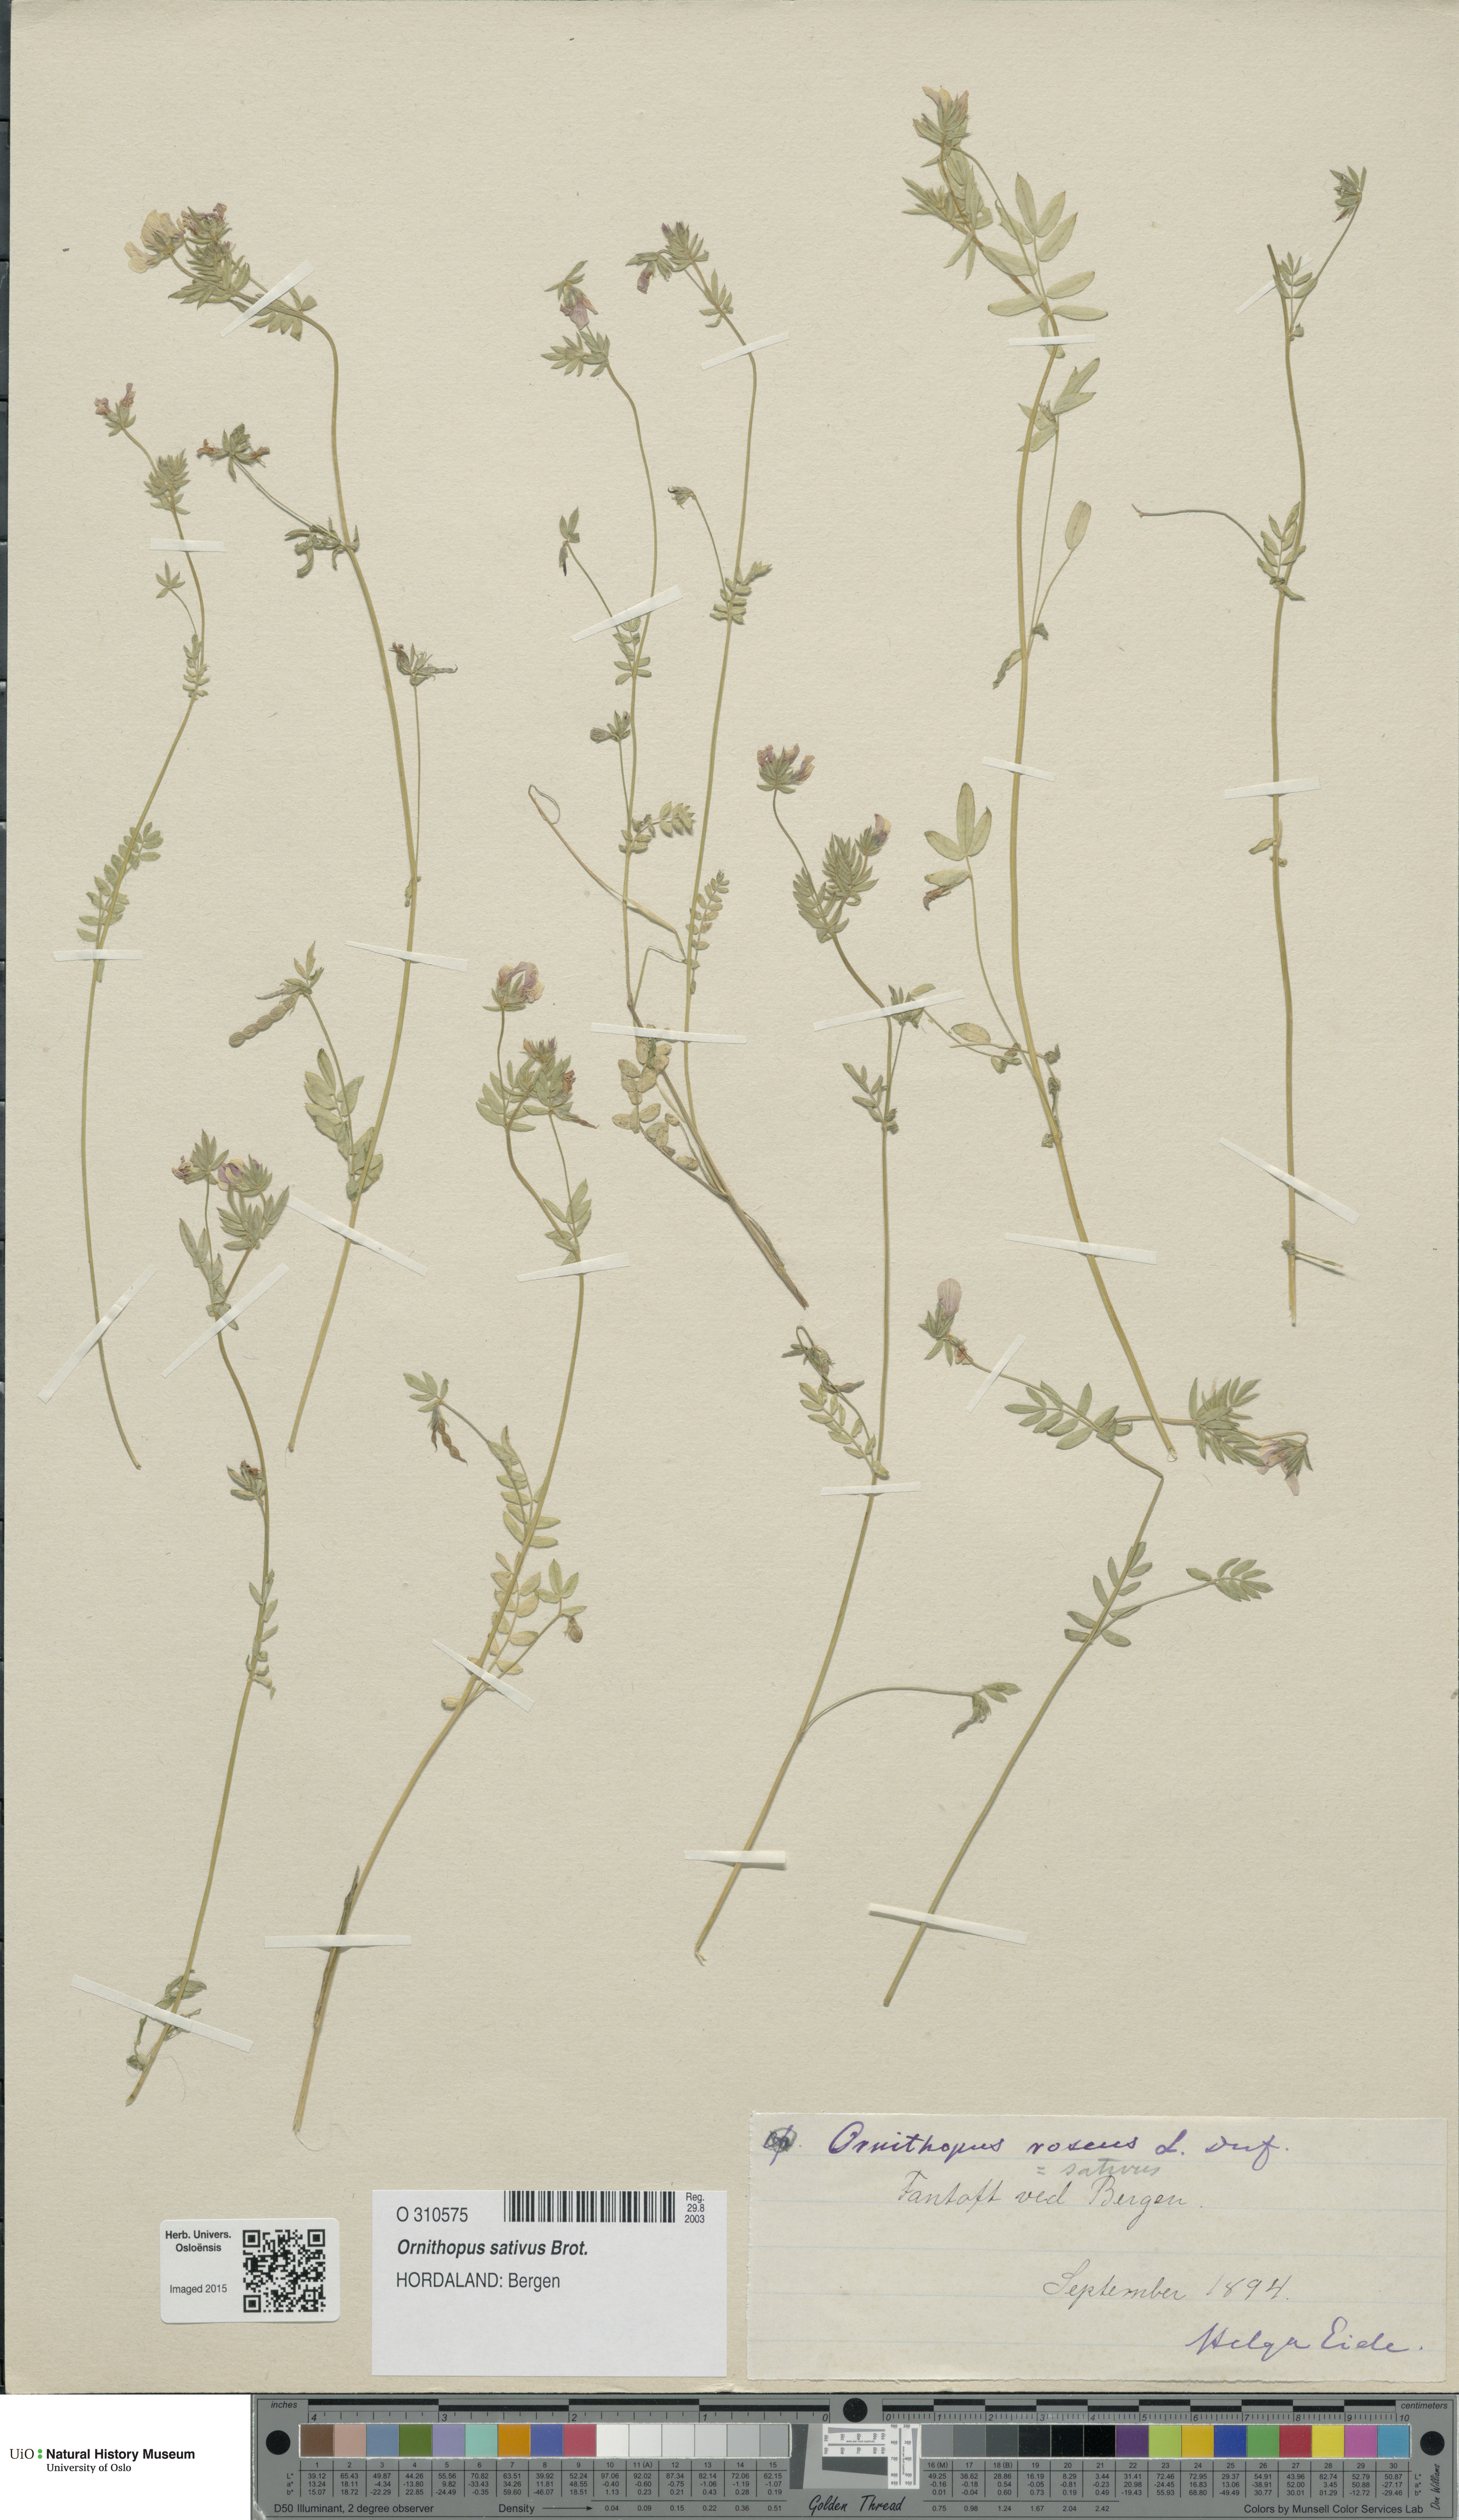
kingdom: Plantae
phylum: Tracheophyta
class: Magnoliopsida
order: Fabales
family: Fabaceae
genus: Ornithopus
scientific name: Ornithopus sativus
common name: Serradella
